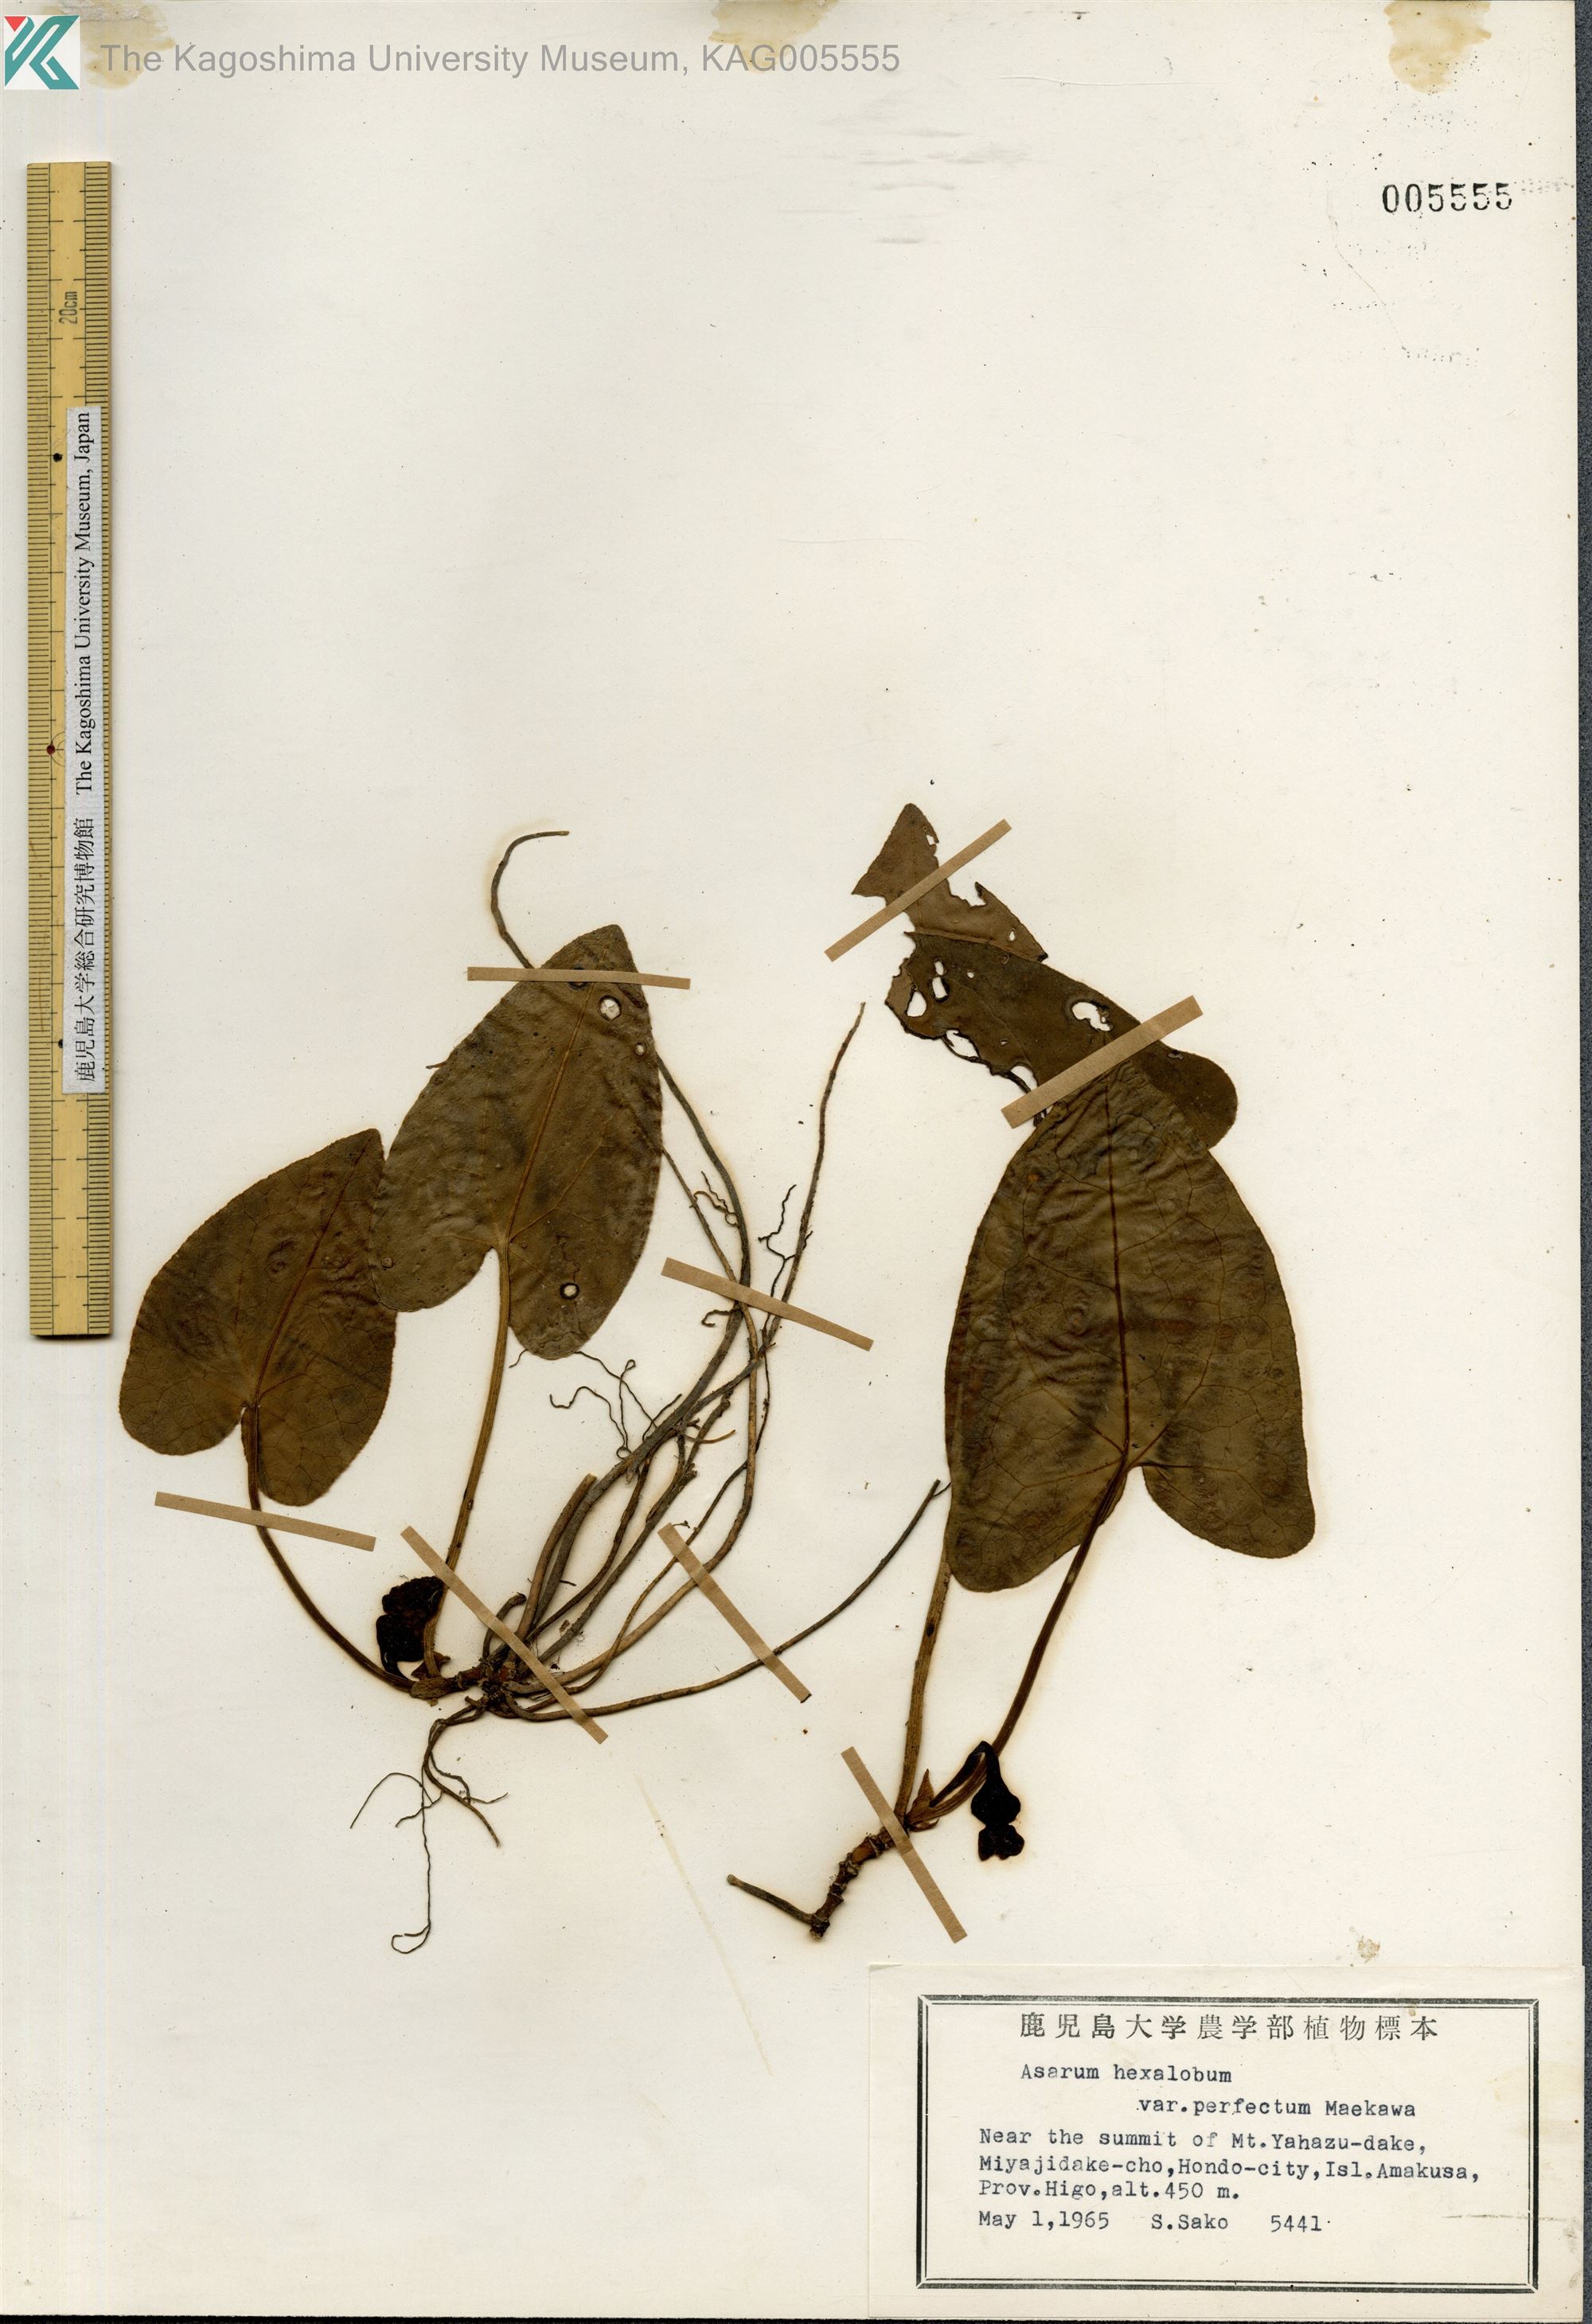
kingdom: Plantae
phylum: Tracheophyta
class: Magnoliopsida
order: Piperales
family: Aristolochiaceae
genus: Asarum
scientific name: Asarum hexalobum
